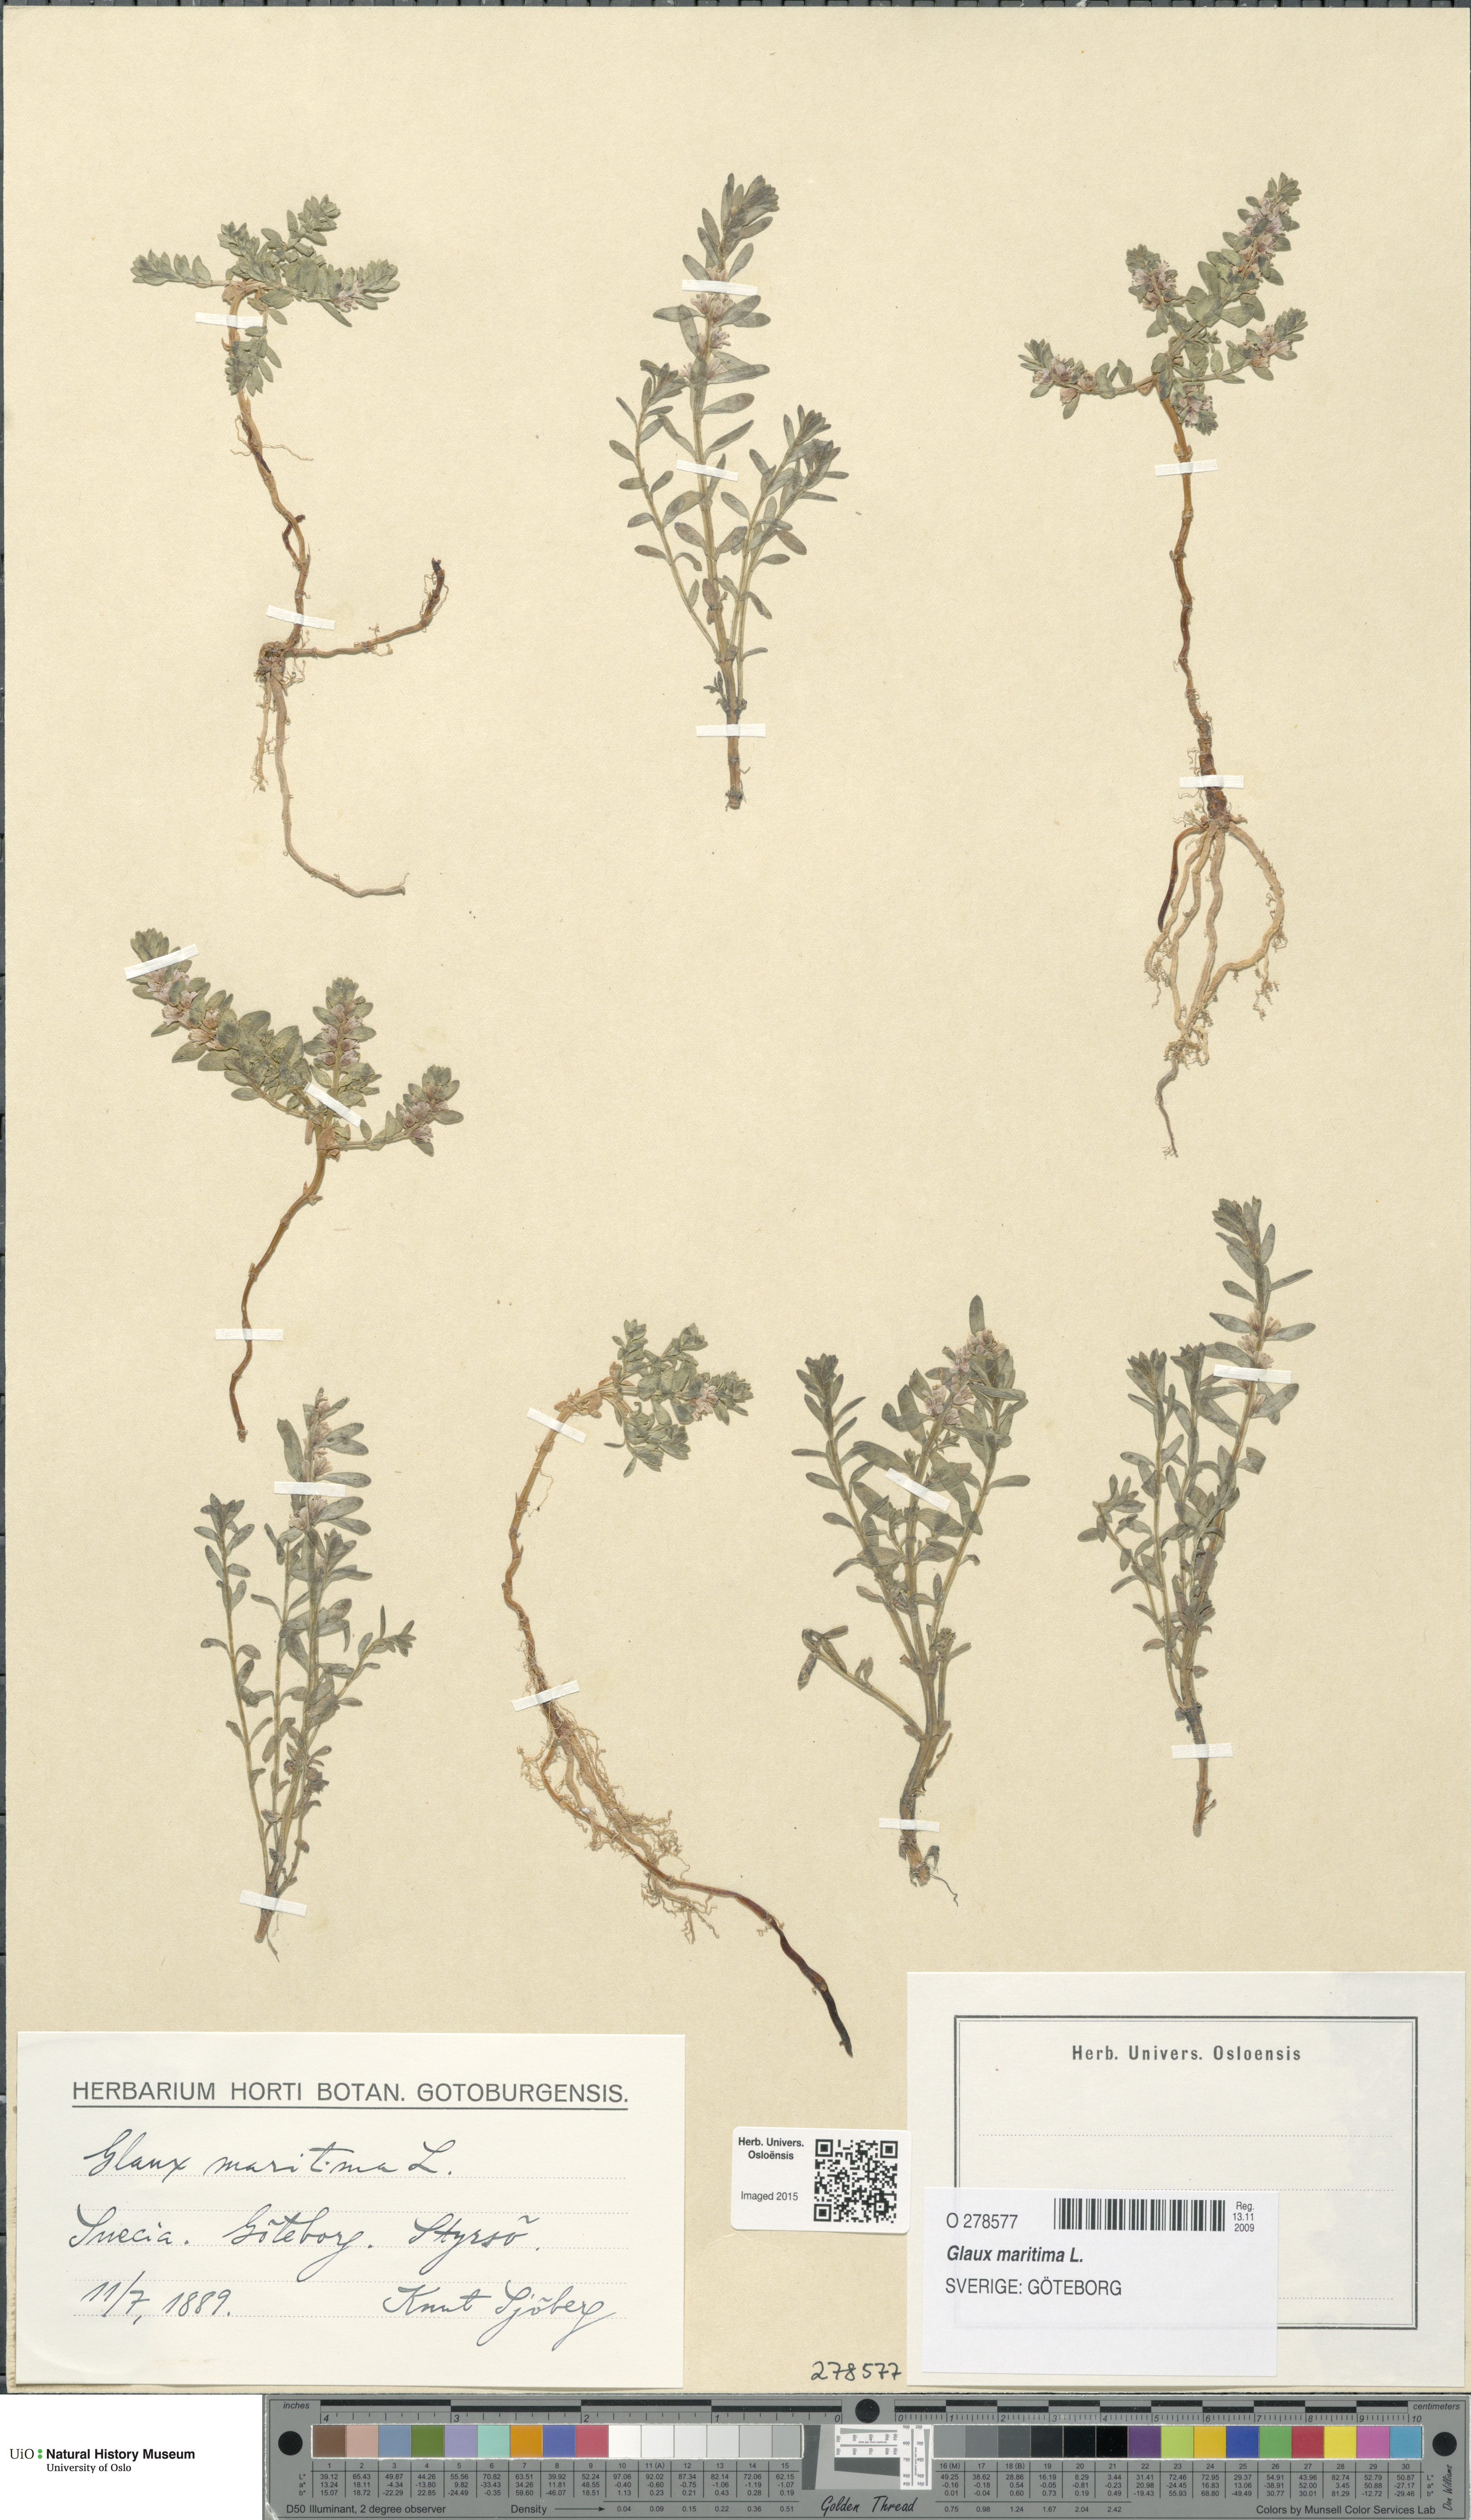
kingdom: Plantae
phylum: Tracheophyta
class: Magnoliopsida
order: Ericales
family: Primulaceae
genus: Lysimachia
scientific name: Lysimachia maritima
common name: Sea milkwort
